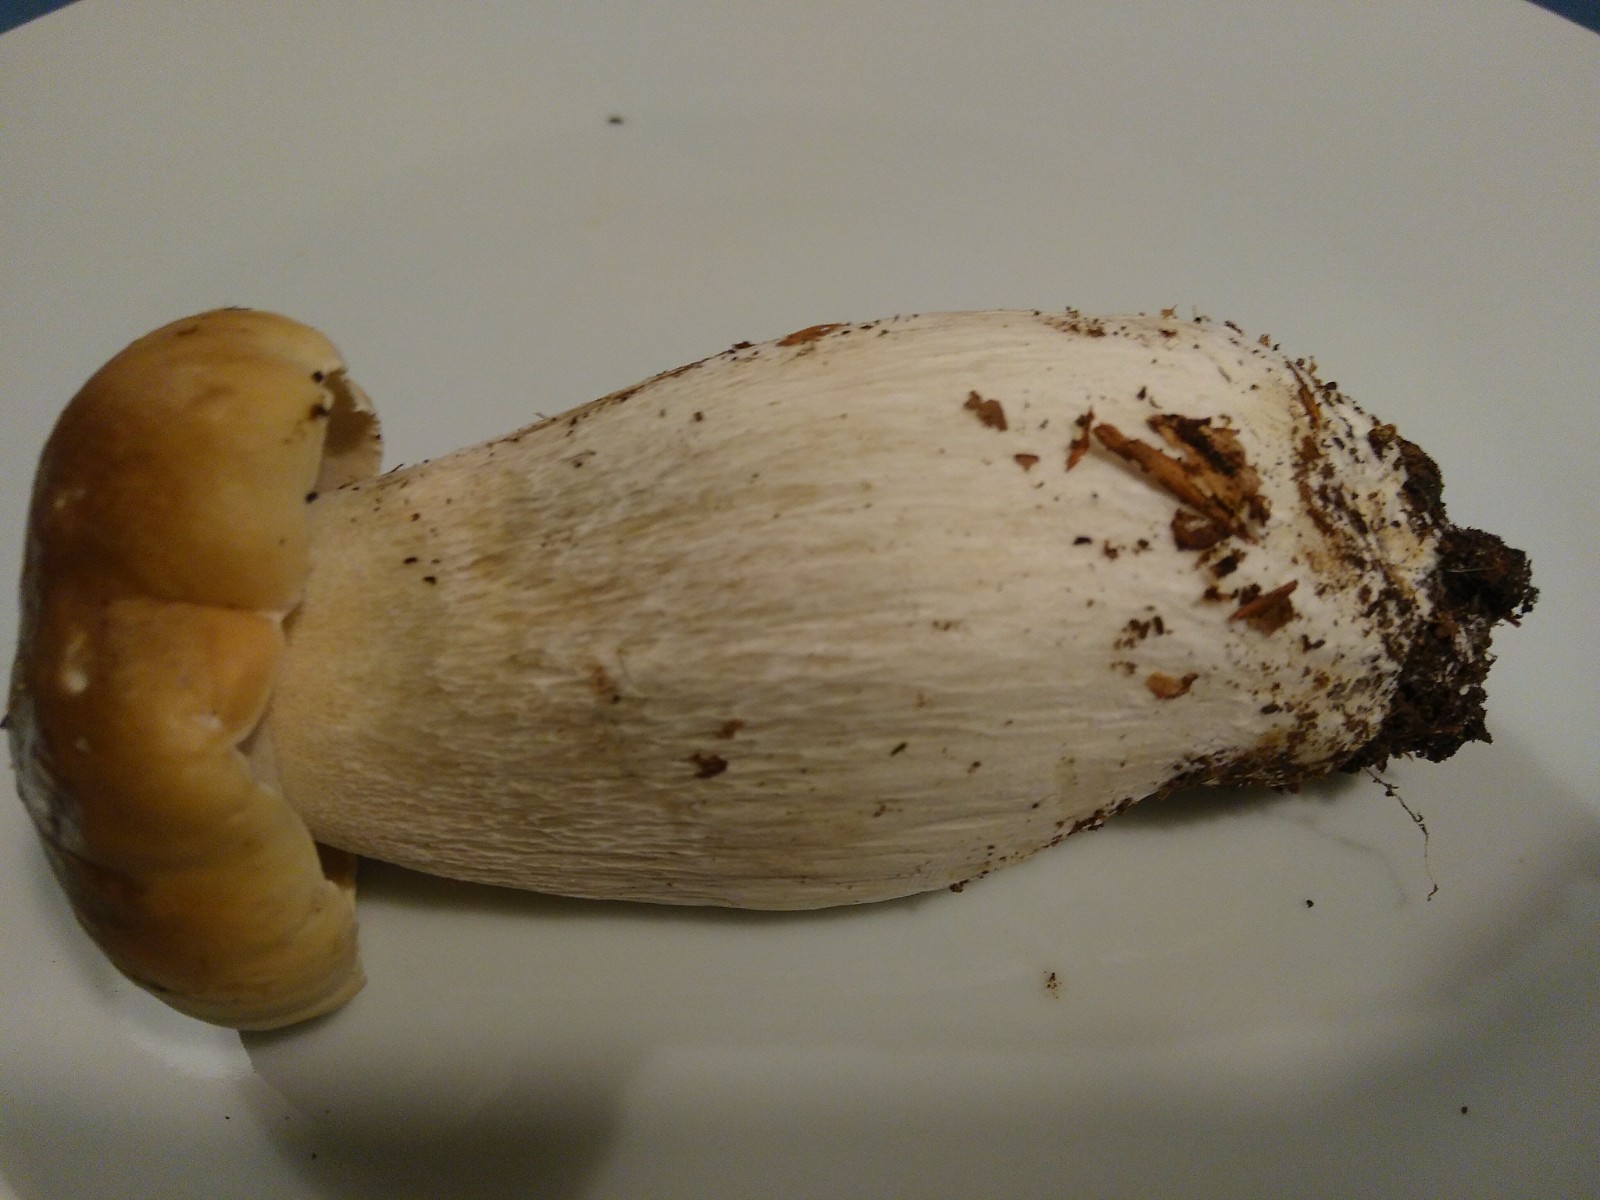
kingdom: Fungi
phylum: Basidiomycota
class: Agaricomycetes
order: Boletales
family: Boletaceae
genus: Boletus
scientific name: Boletus edulis
